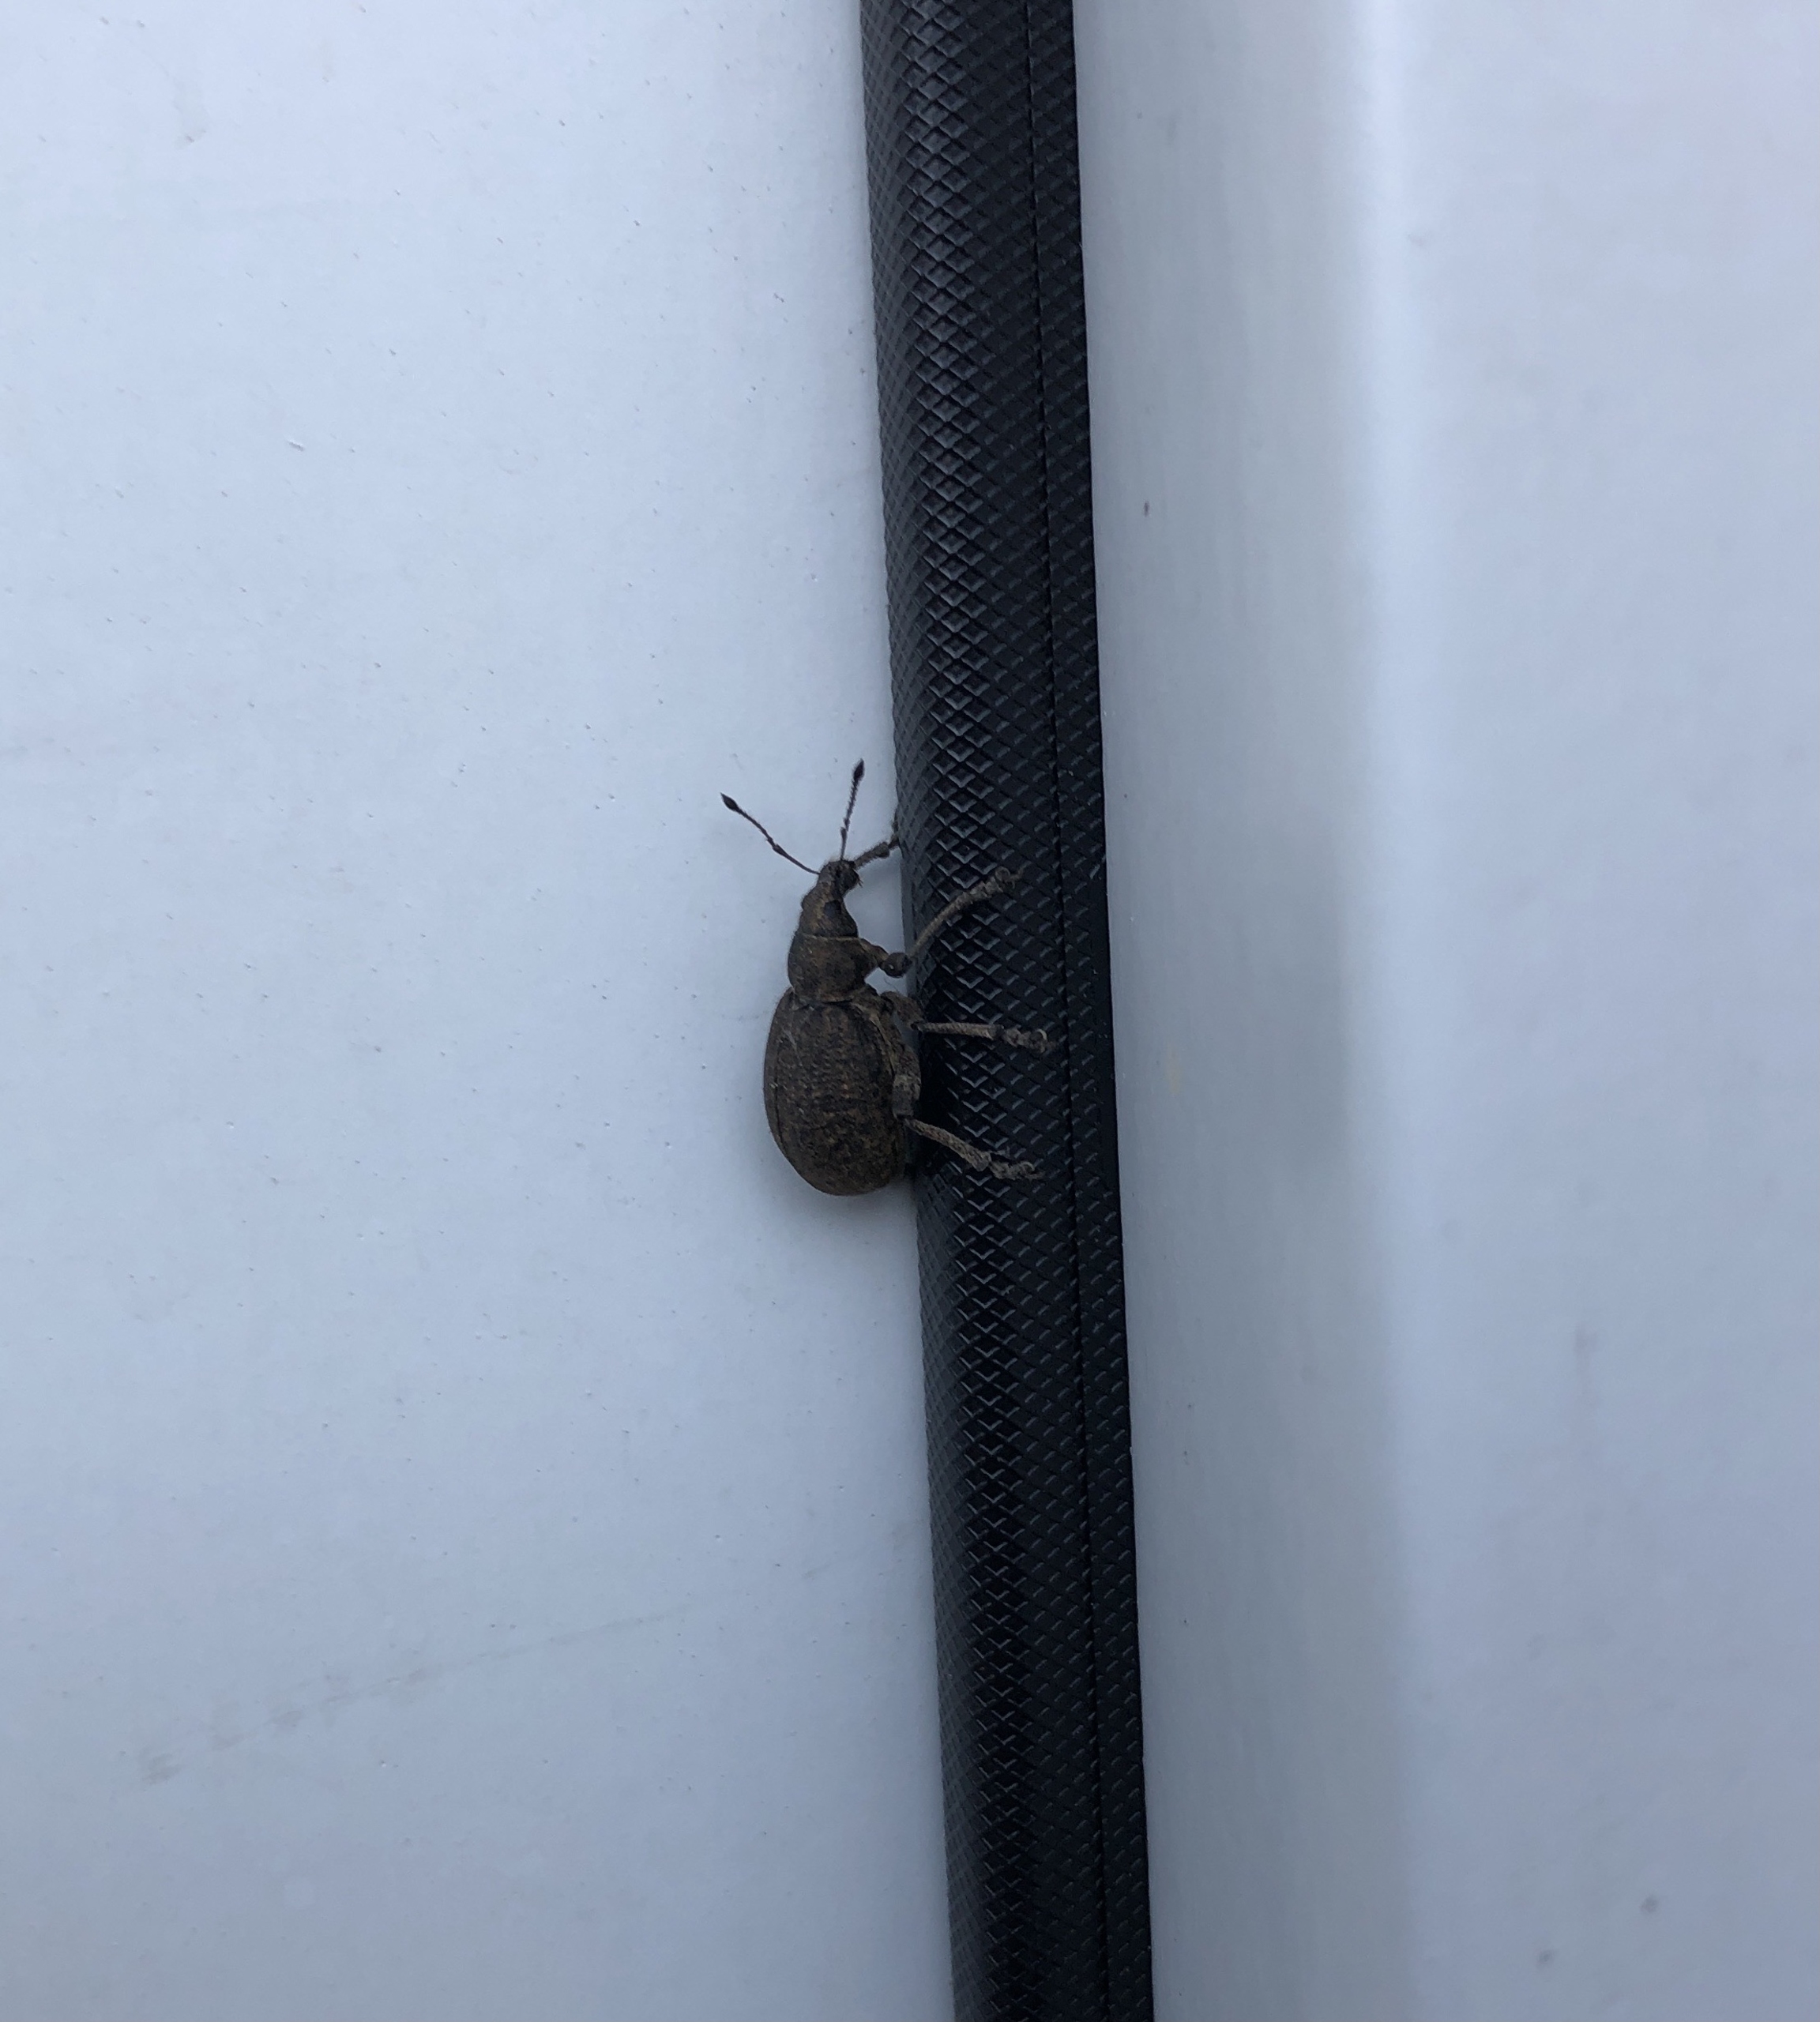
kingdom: Animalia
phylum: Arthropoda
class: Insecta
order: Coleoptera
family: Curculionidae
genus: Liophloeus
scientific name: Liophloeus tessulatus
